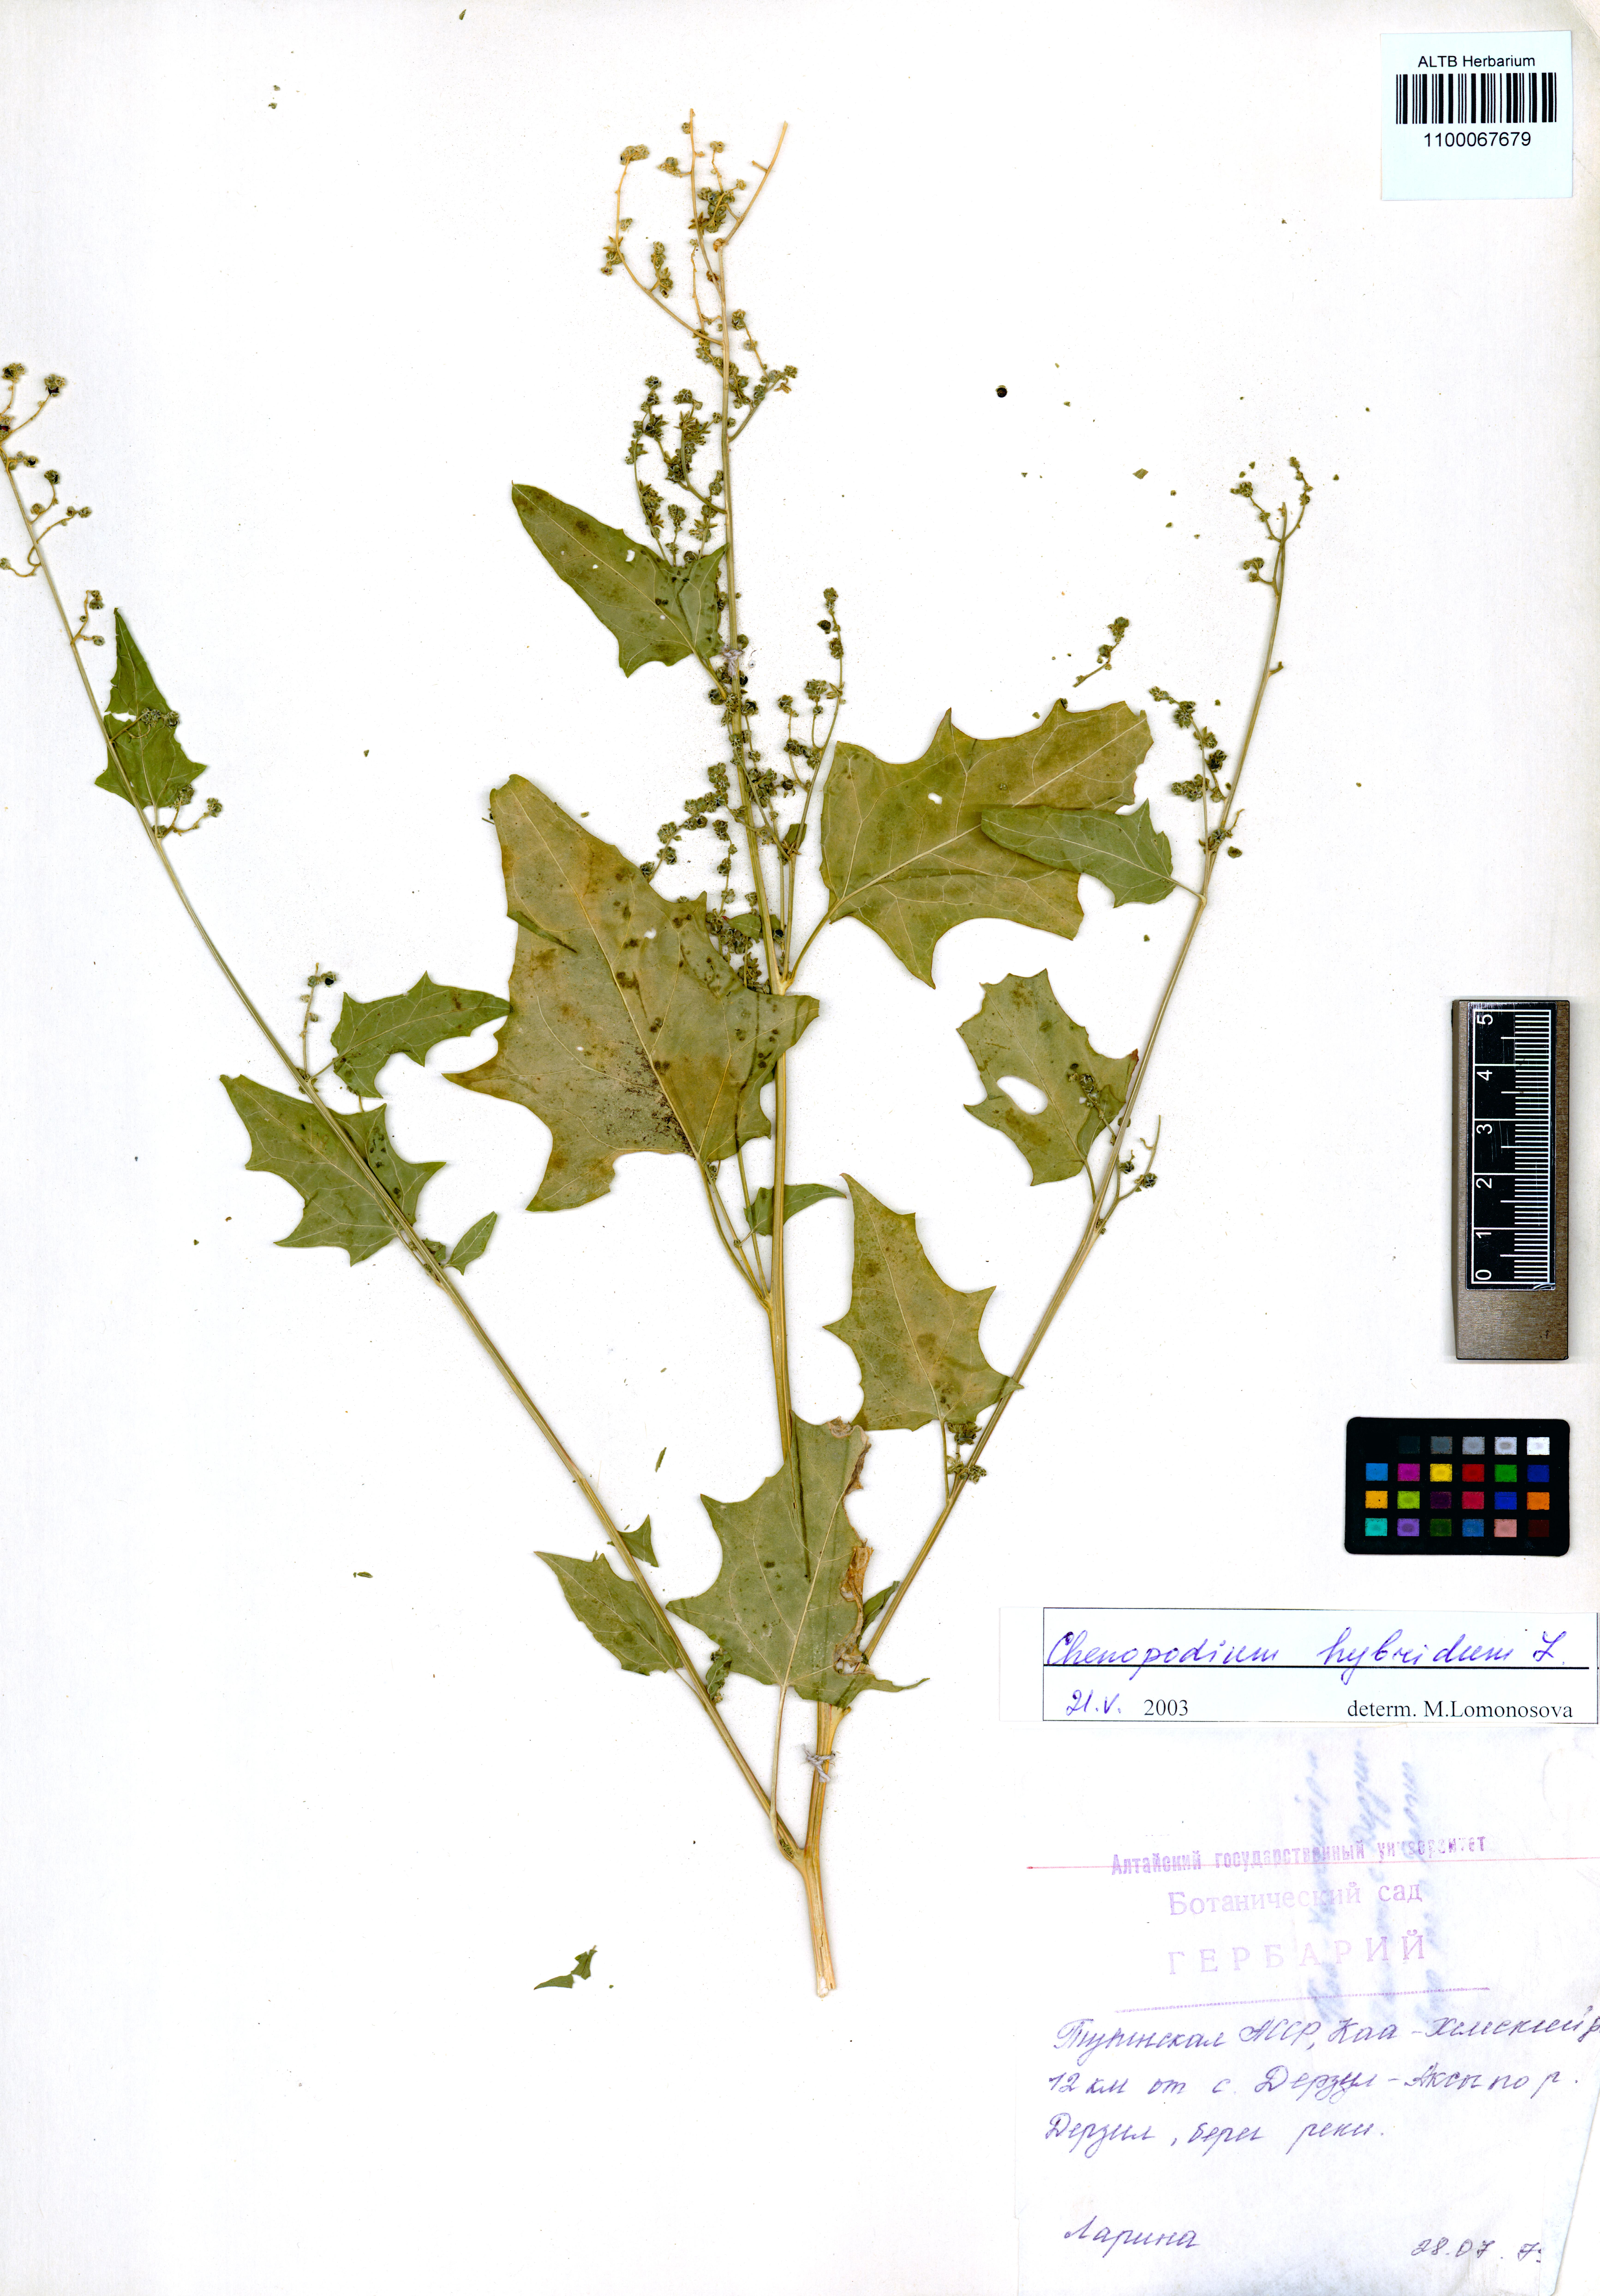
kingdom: Plantae
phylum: Tracheophyta
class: Magnoliopsida
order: Caryophyllales
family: Amaranthaceae
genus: Chenopodiastrum
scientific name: Chenopodiastrum hybridum
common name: Mapleleaf goosefoot
